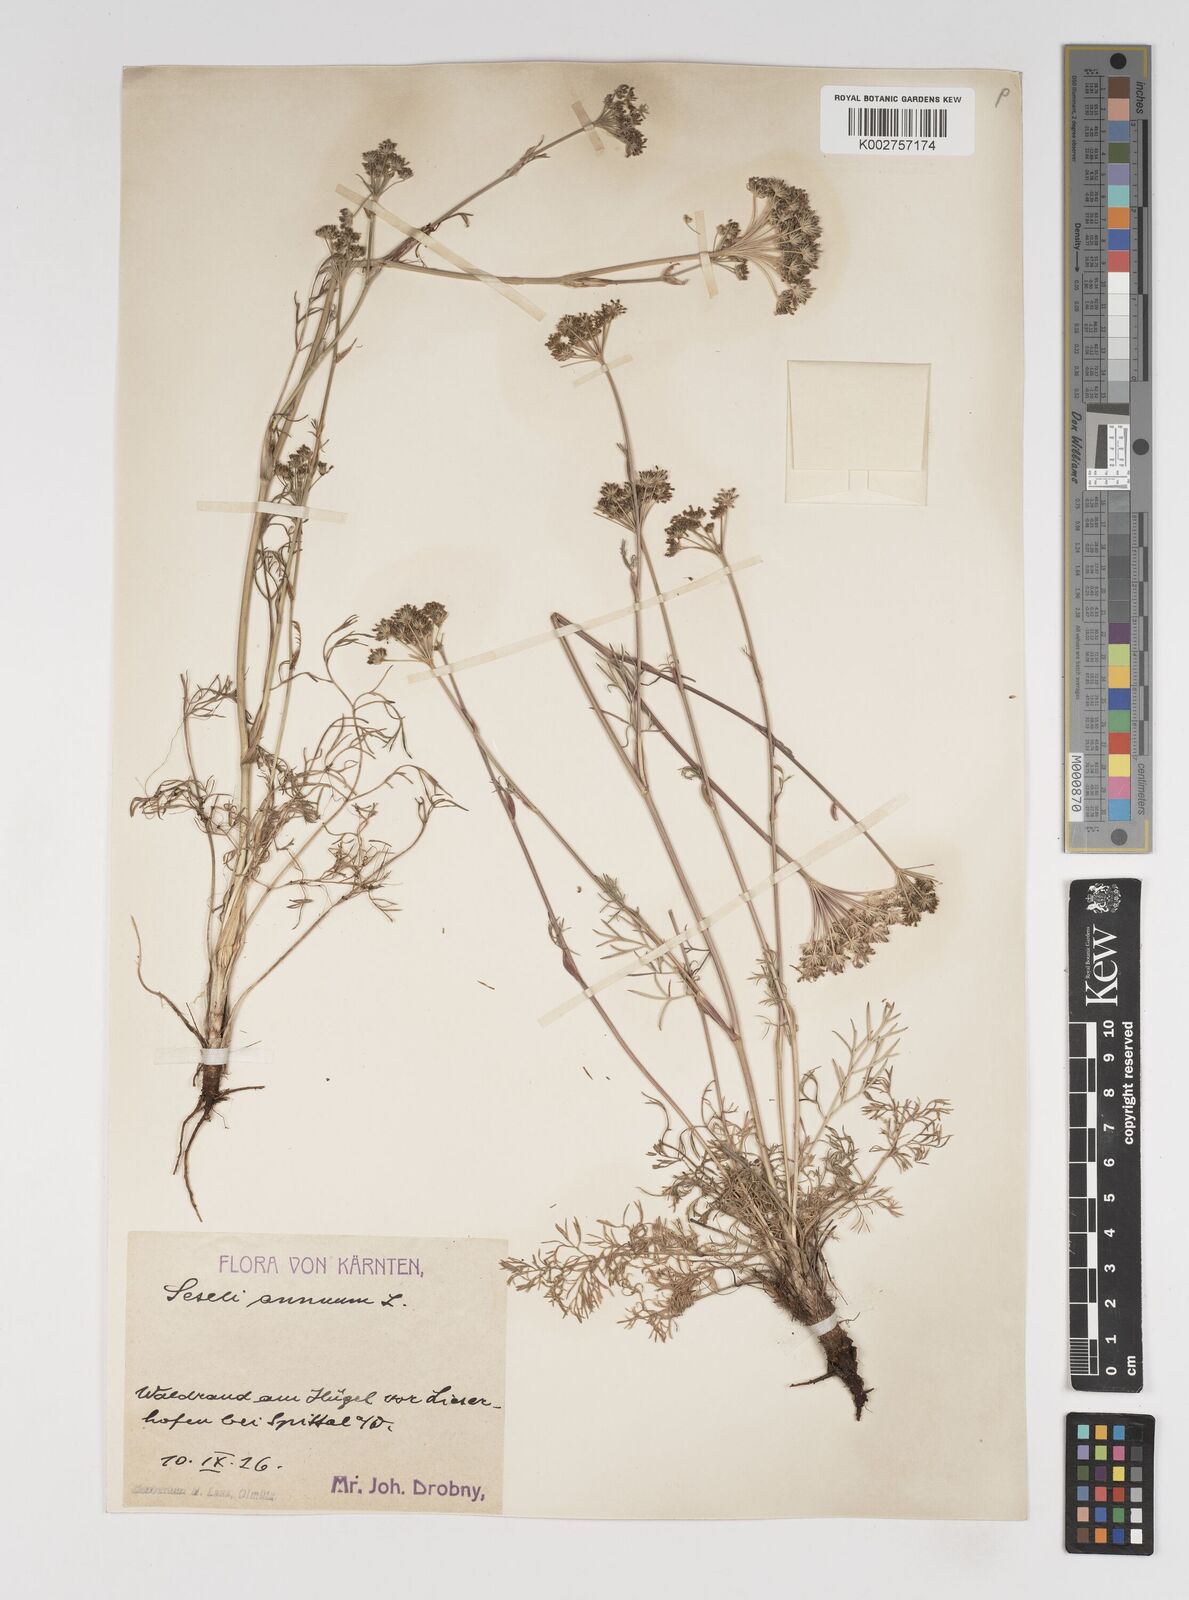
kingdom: Plantae
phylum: Tracheophyta
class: Magnoliopsida
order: Apiales
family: Apiaceae
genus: Seseli
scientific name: Seseli annuum
